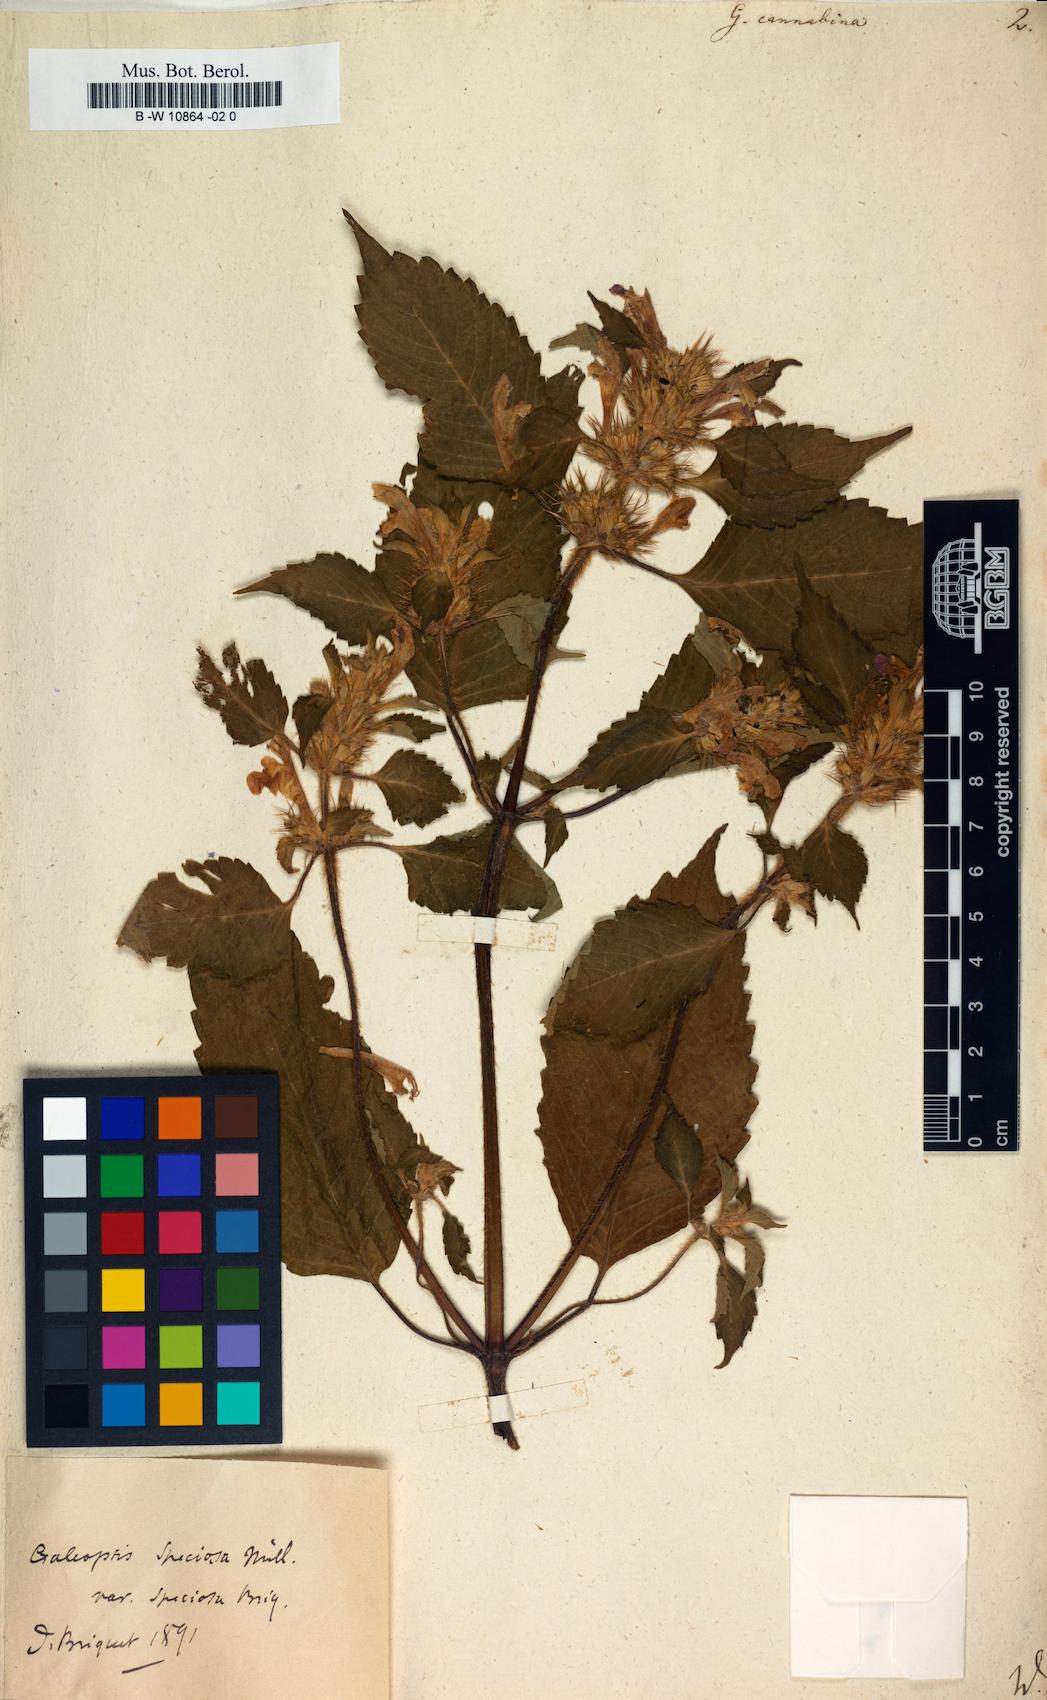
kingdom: Plantae
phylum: Tracheophyta
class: Magnoliopsida
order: Lamiales
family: Lamiaceae
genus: Galeopsis
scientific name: Galeopsis cannabina
